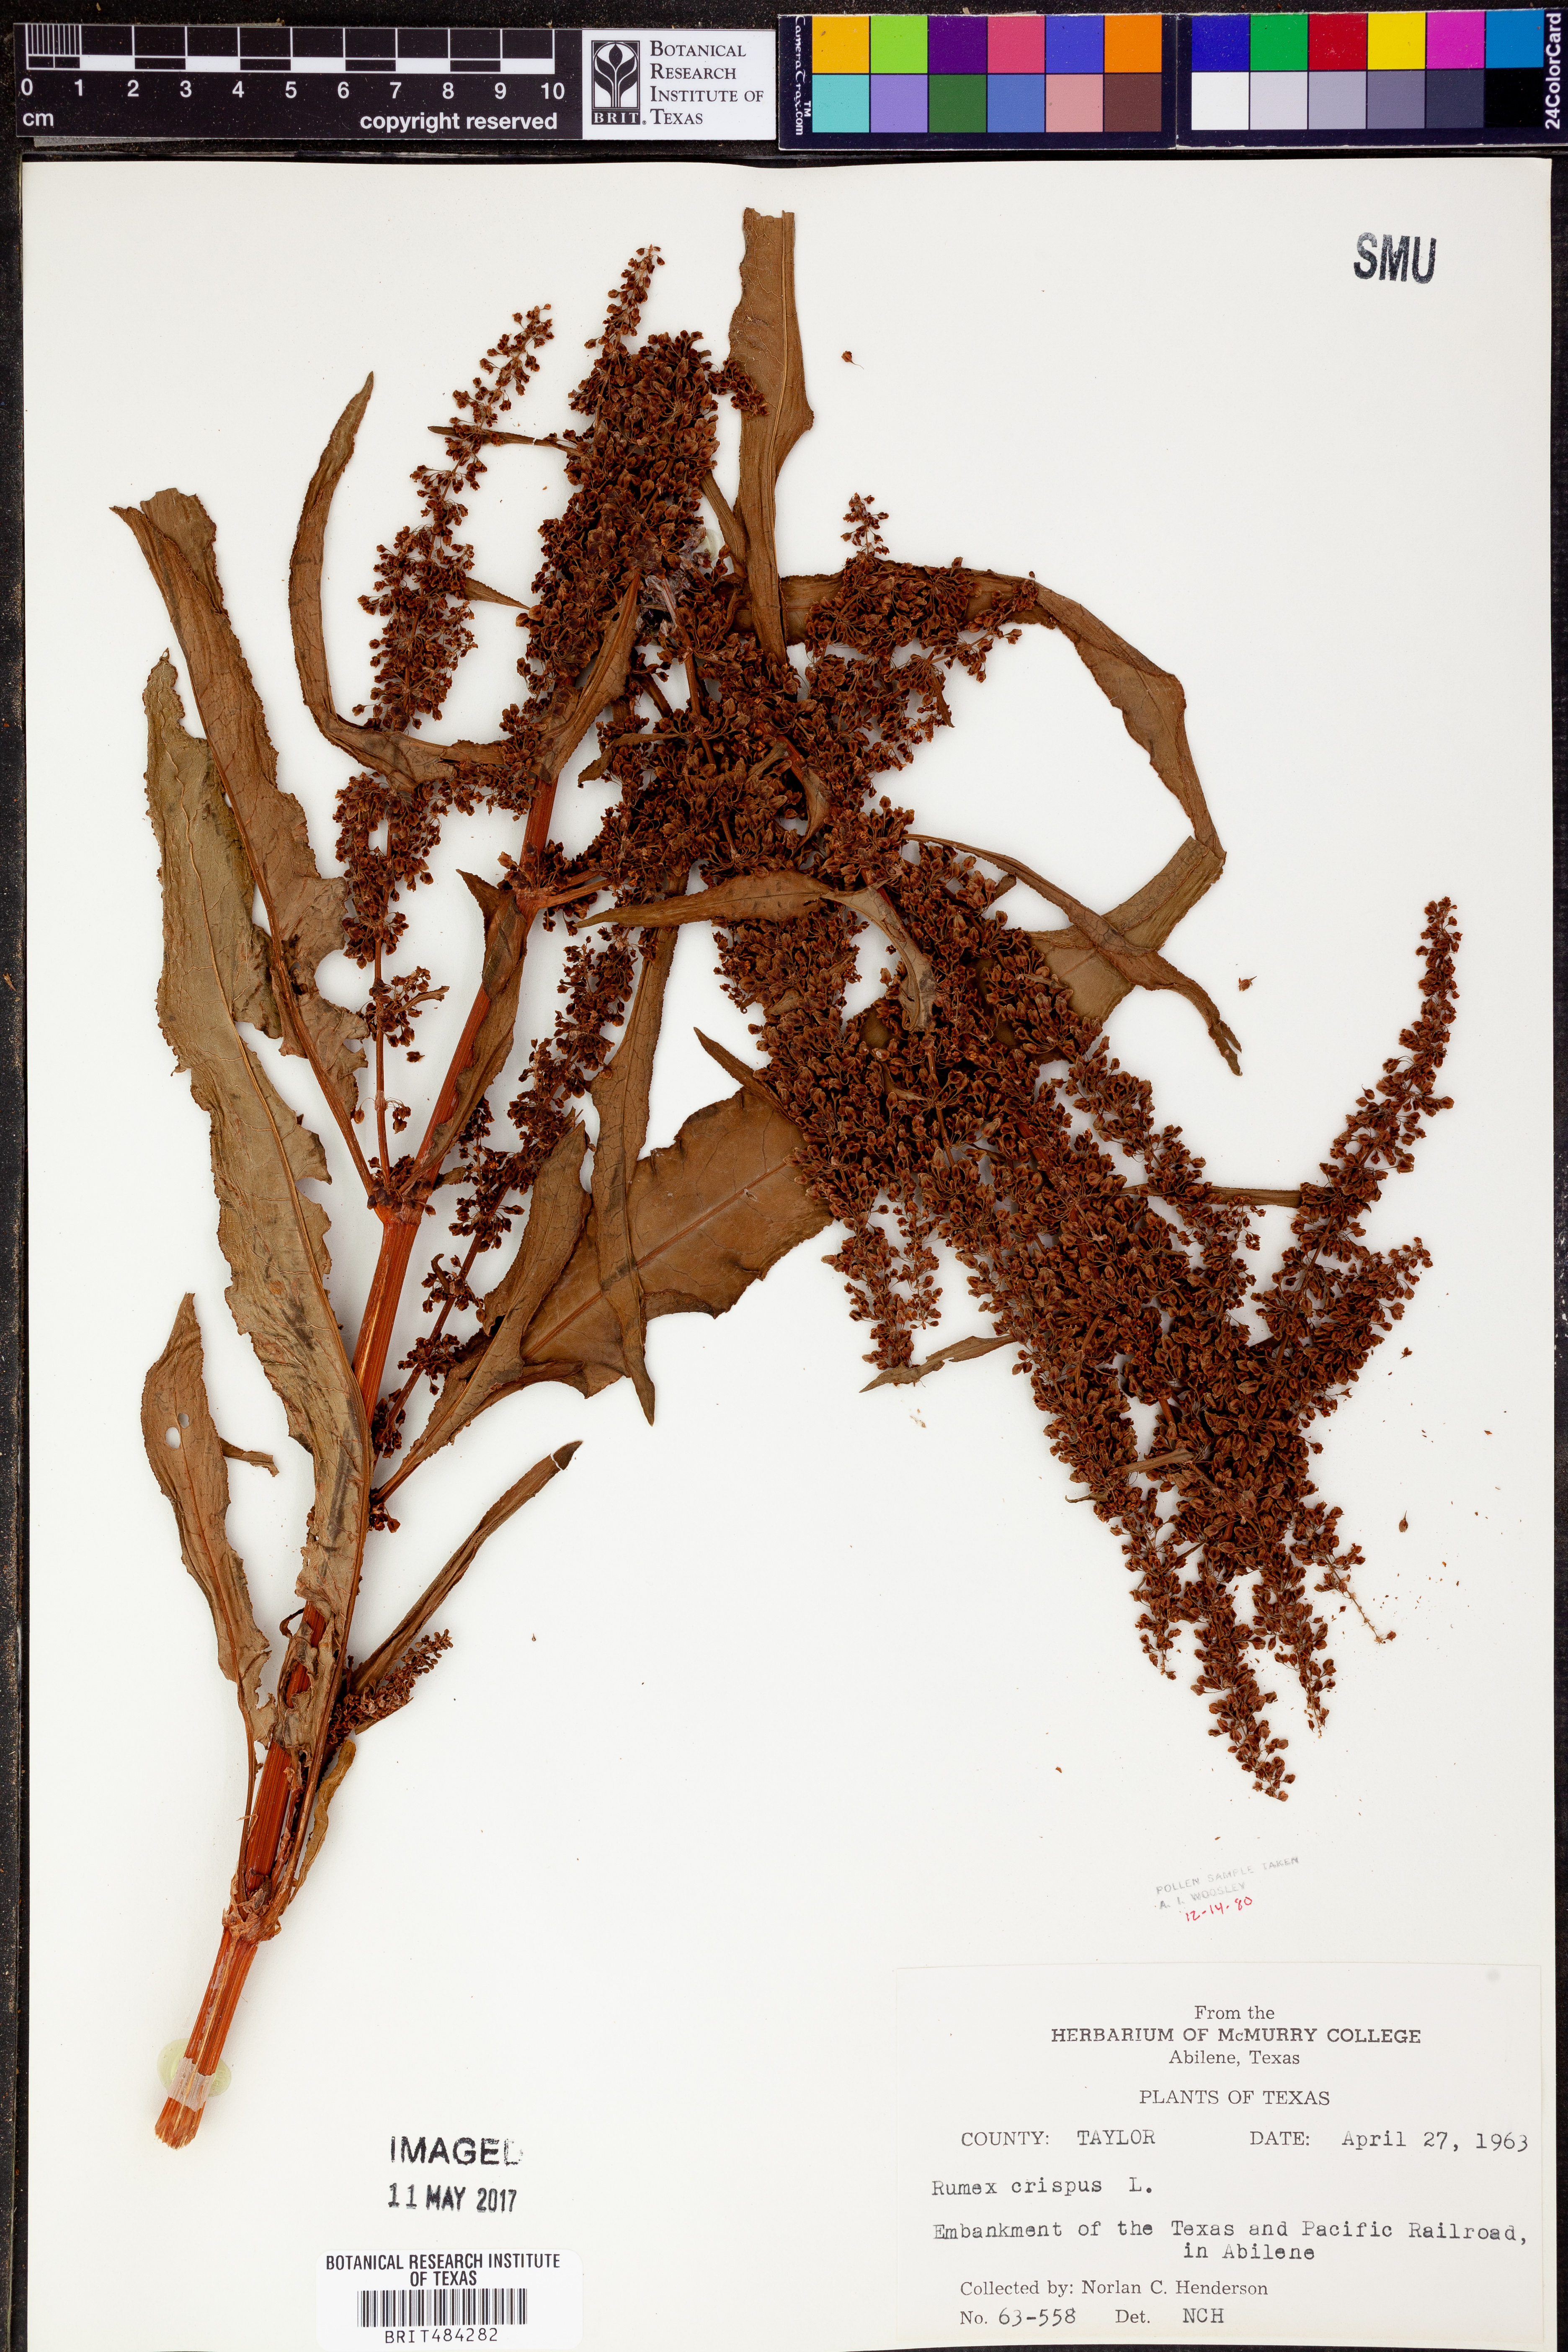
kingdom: Plantae
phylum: Tracheophyta
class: Magnoliopsida
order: Caryophyllales
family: Polygonaceae
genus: Rumex
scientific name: Rumex crispus
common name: Curled dock
